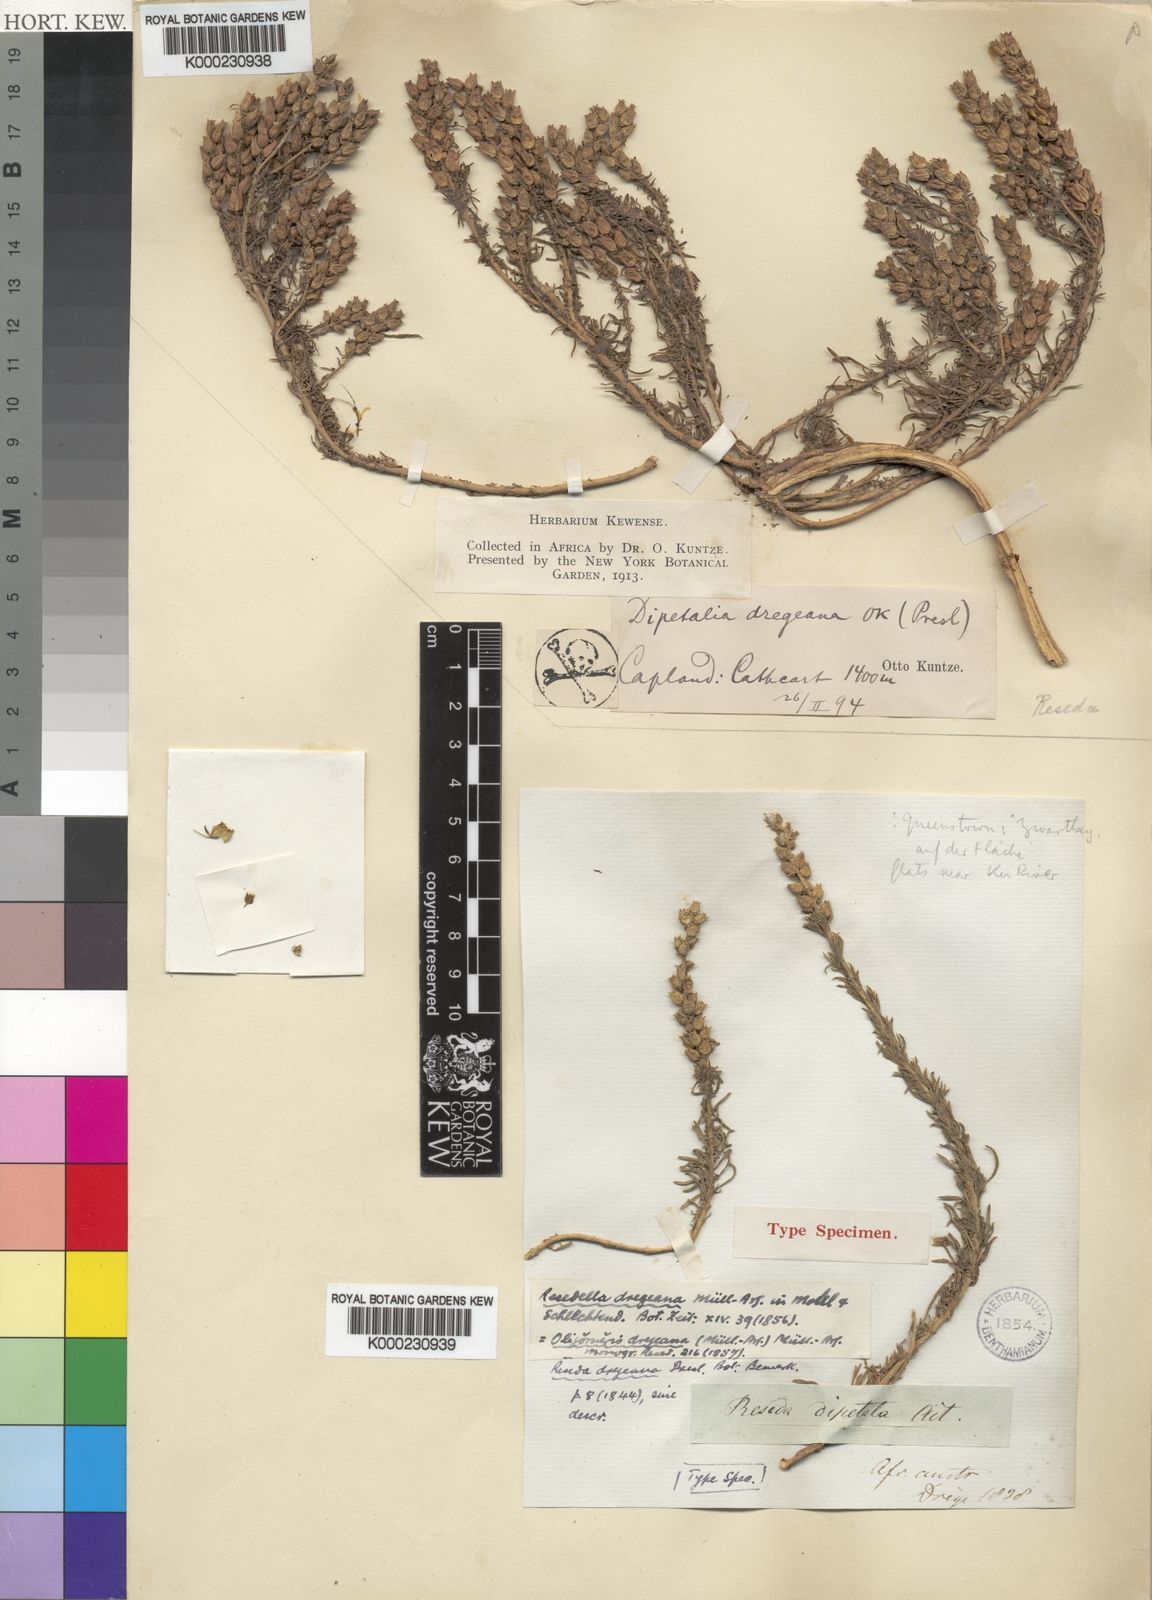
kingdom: Plantae
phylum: Tracheophyta
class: Magnoliopsida
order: Brassicales
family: Resedaceae
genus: Oligomeris
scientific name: Oligomeris
